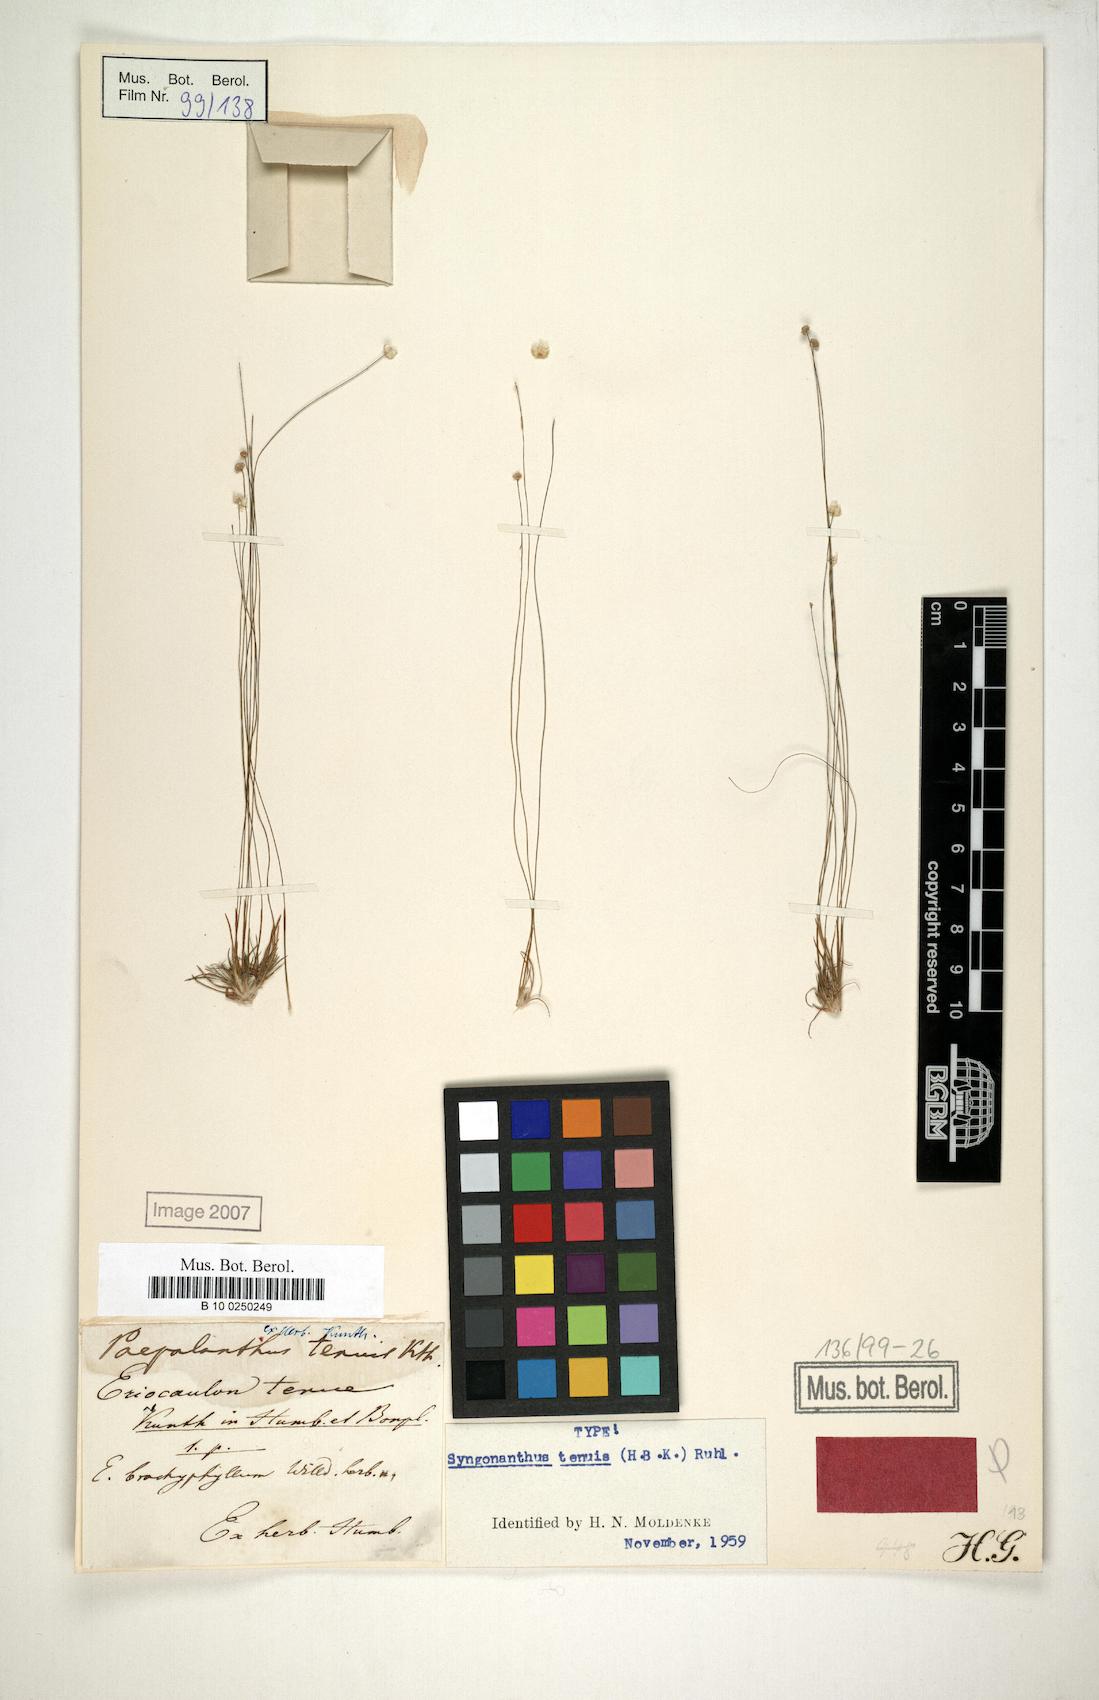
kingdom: Plantae
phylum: Tracheophyta
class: Liliopsida
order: Poales
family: Eriocaulaceae
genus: Syngonanthus
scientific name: Syngonanthus tenuis
